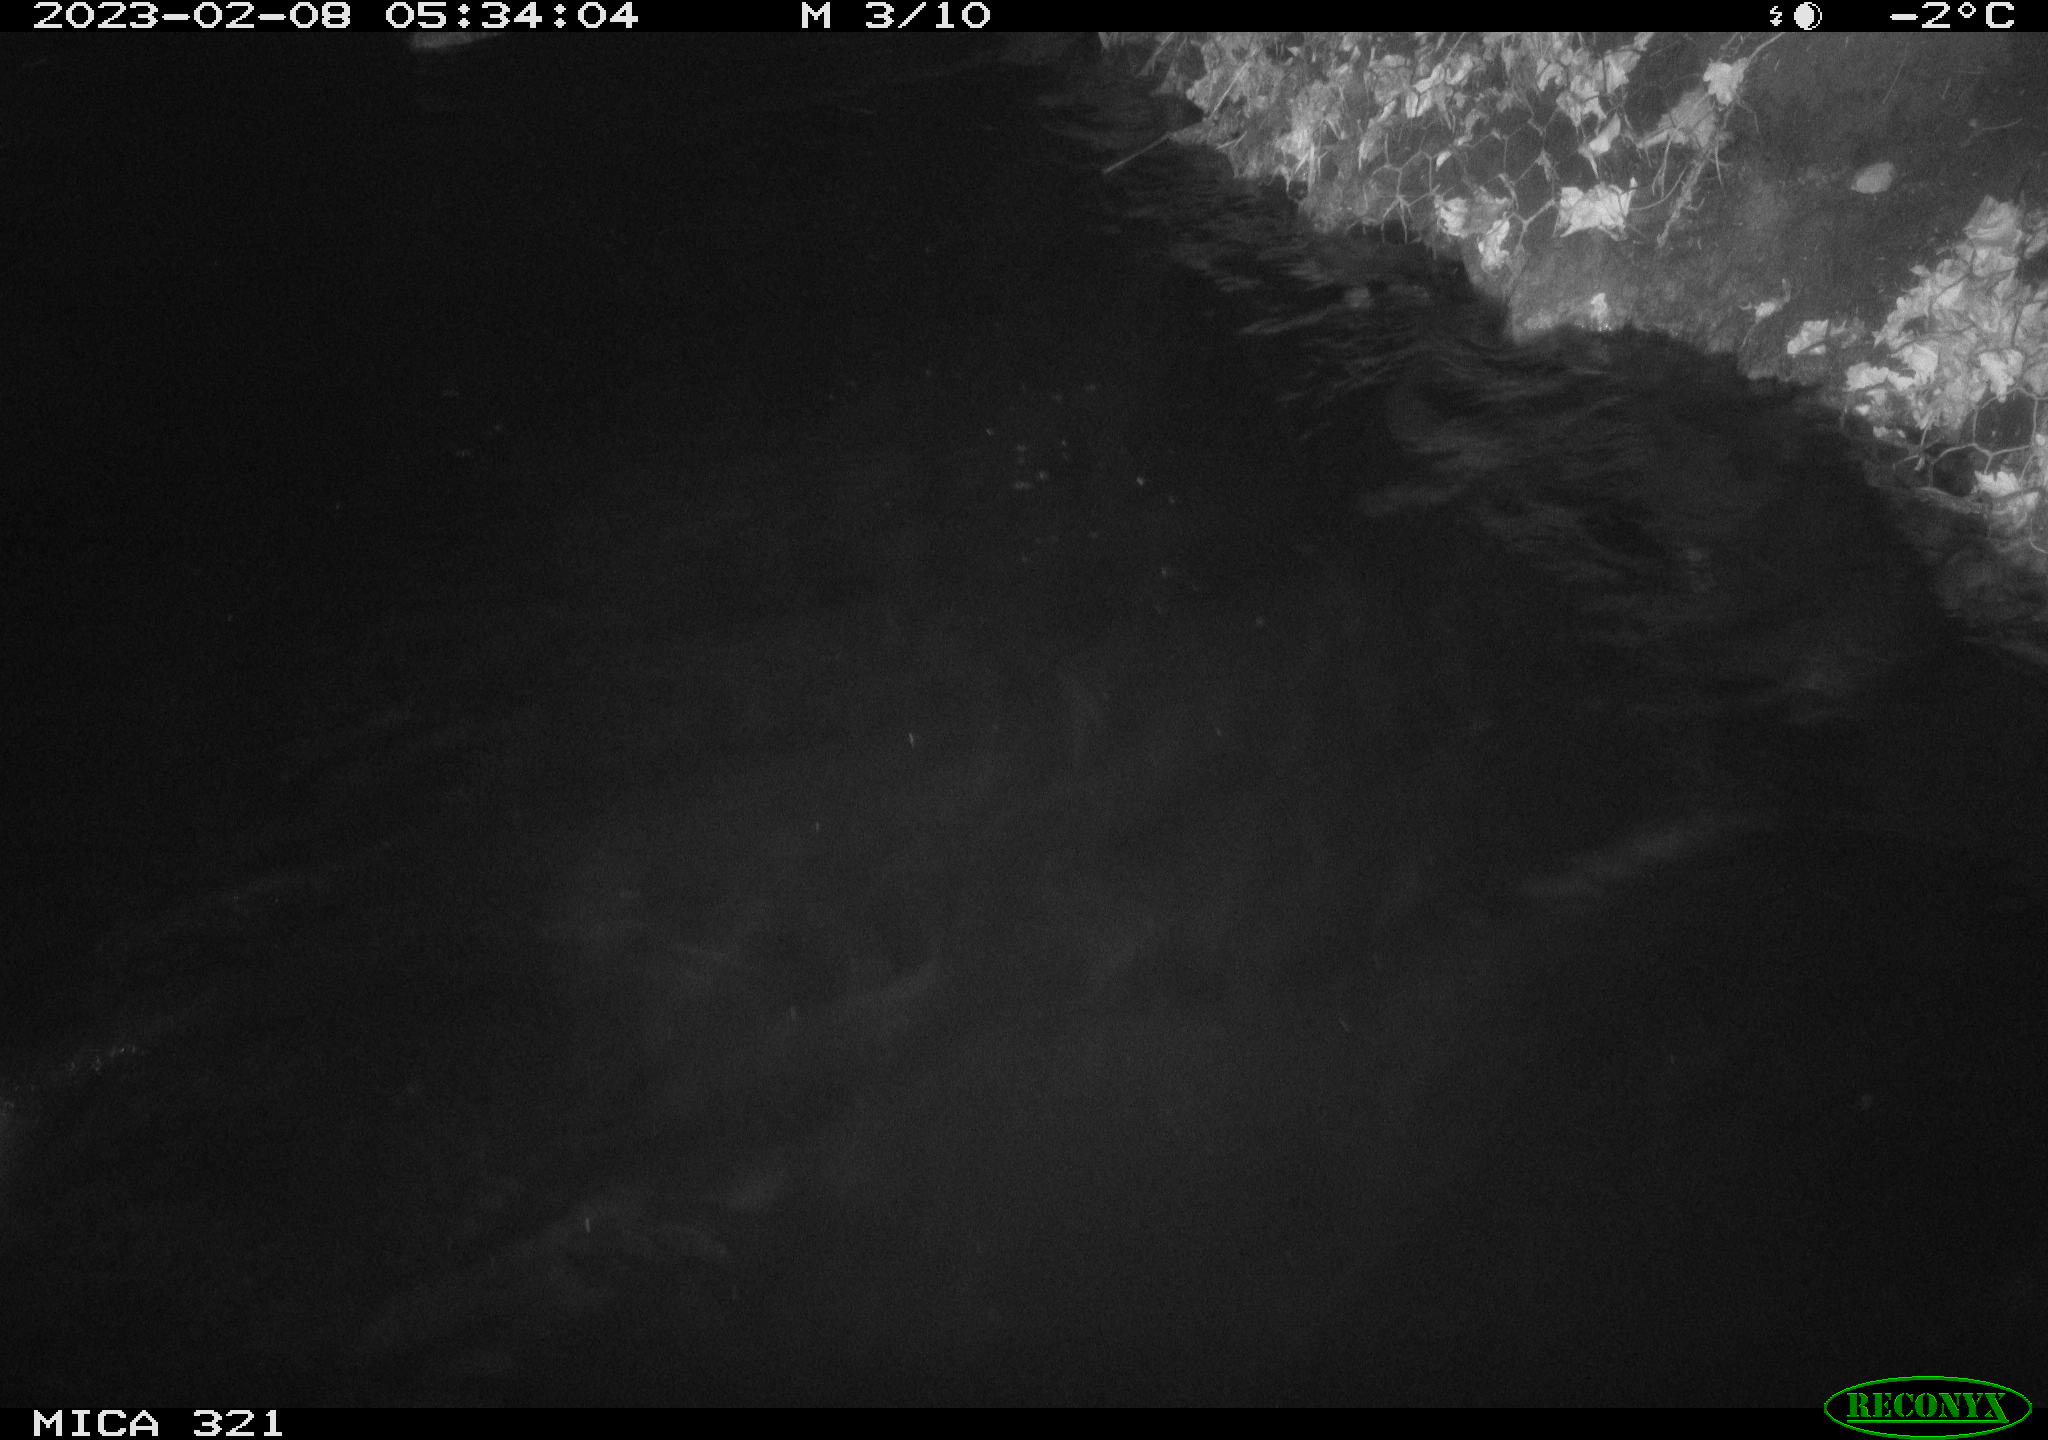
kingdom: Animalia
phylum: Chordata
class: Mammalia
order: Rodentia
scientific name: Rodentia
